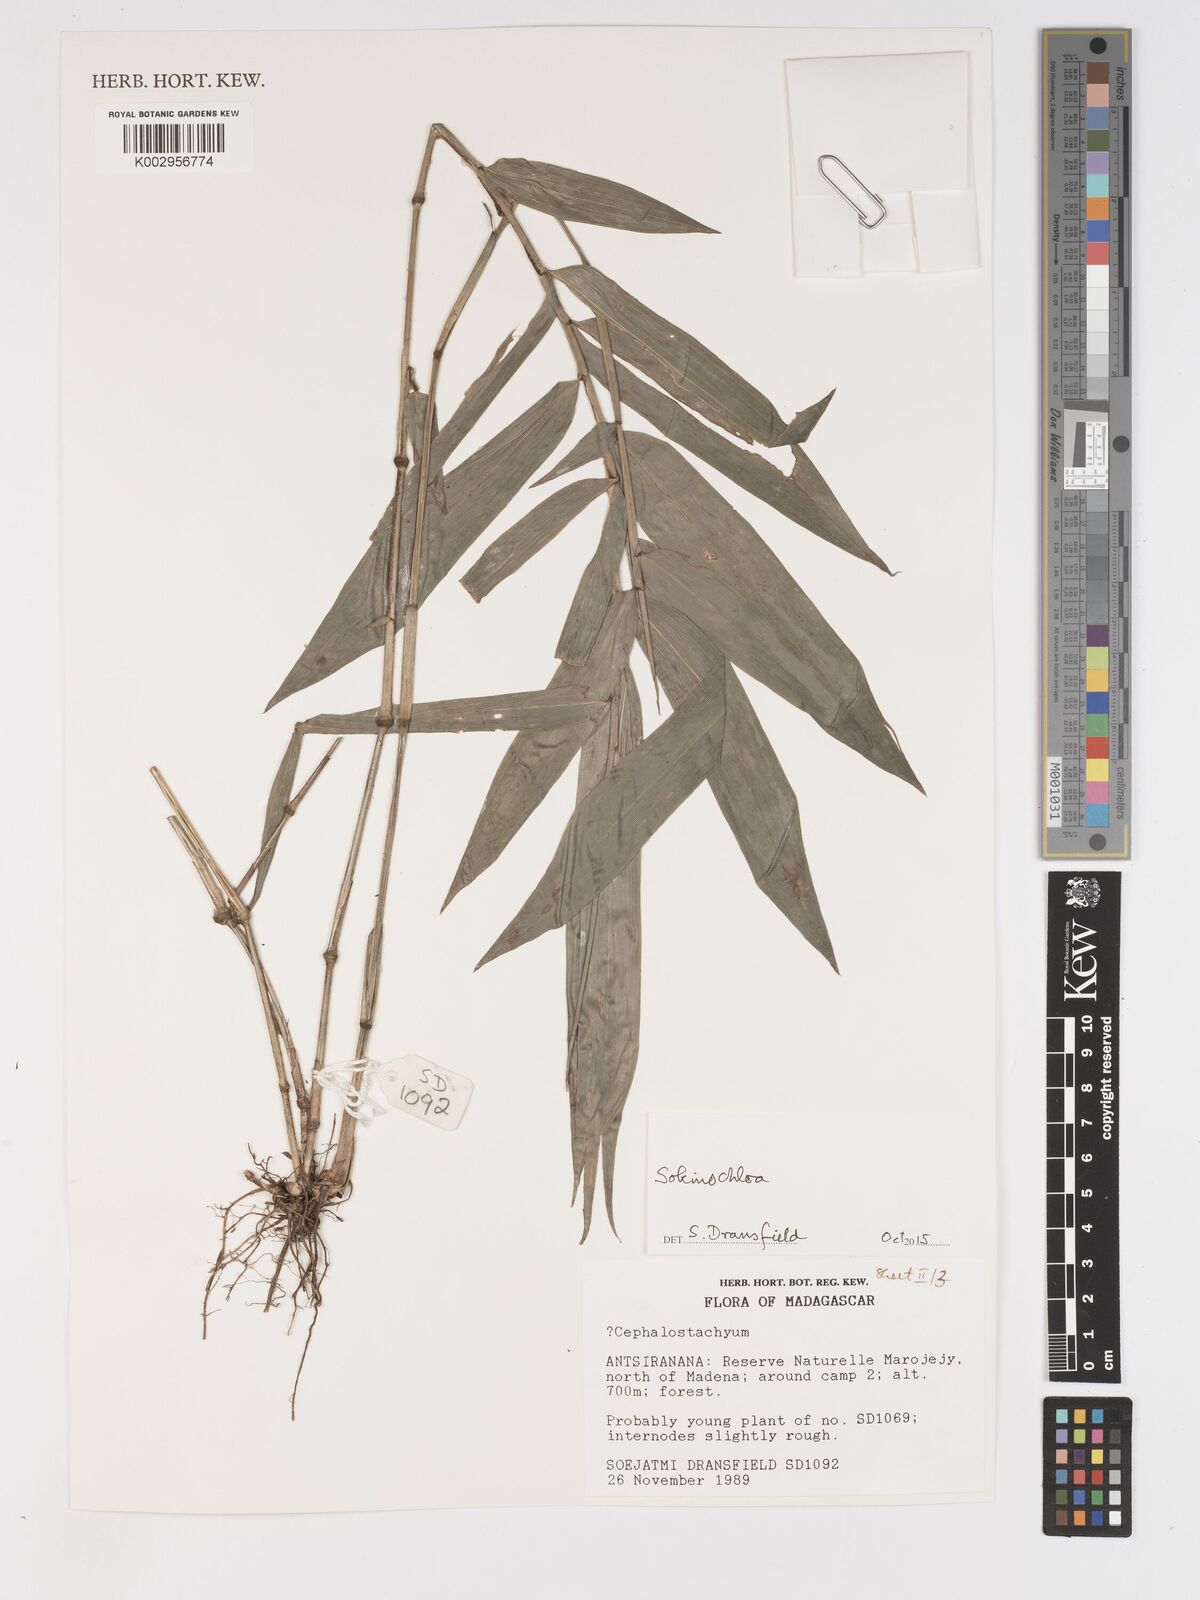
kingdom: Plantae
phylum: Tracheophyta
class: Liliopsida
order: Poales
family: Poaceae
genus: Sokinochloa
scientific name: Sokinochloa
